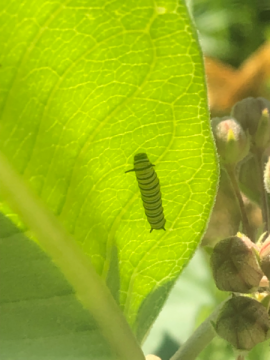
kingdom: Animalia
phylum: Arthropoda
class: Insecta
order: Lepidoptera
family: Nymphalidae
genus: Danaus
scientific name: Danaus plexippus
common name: Monarch
